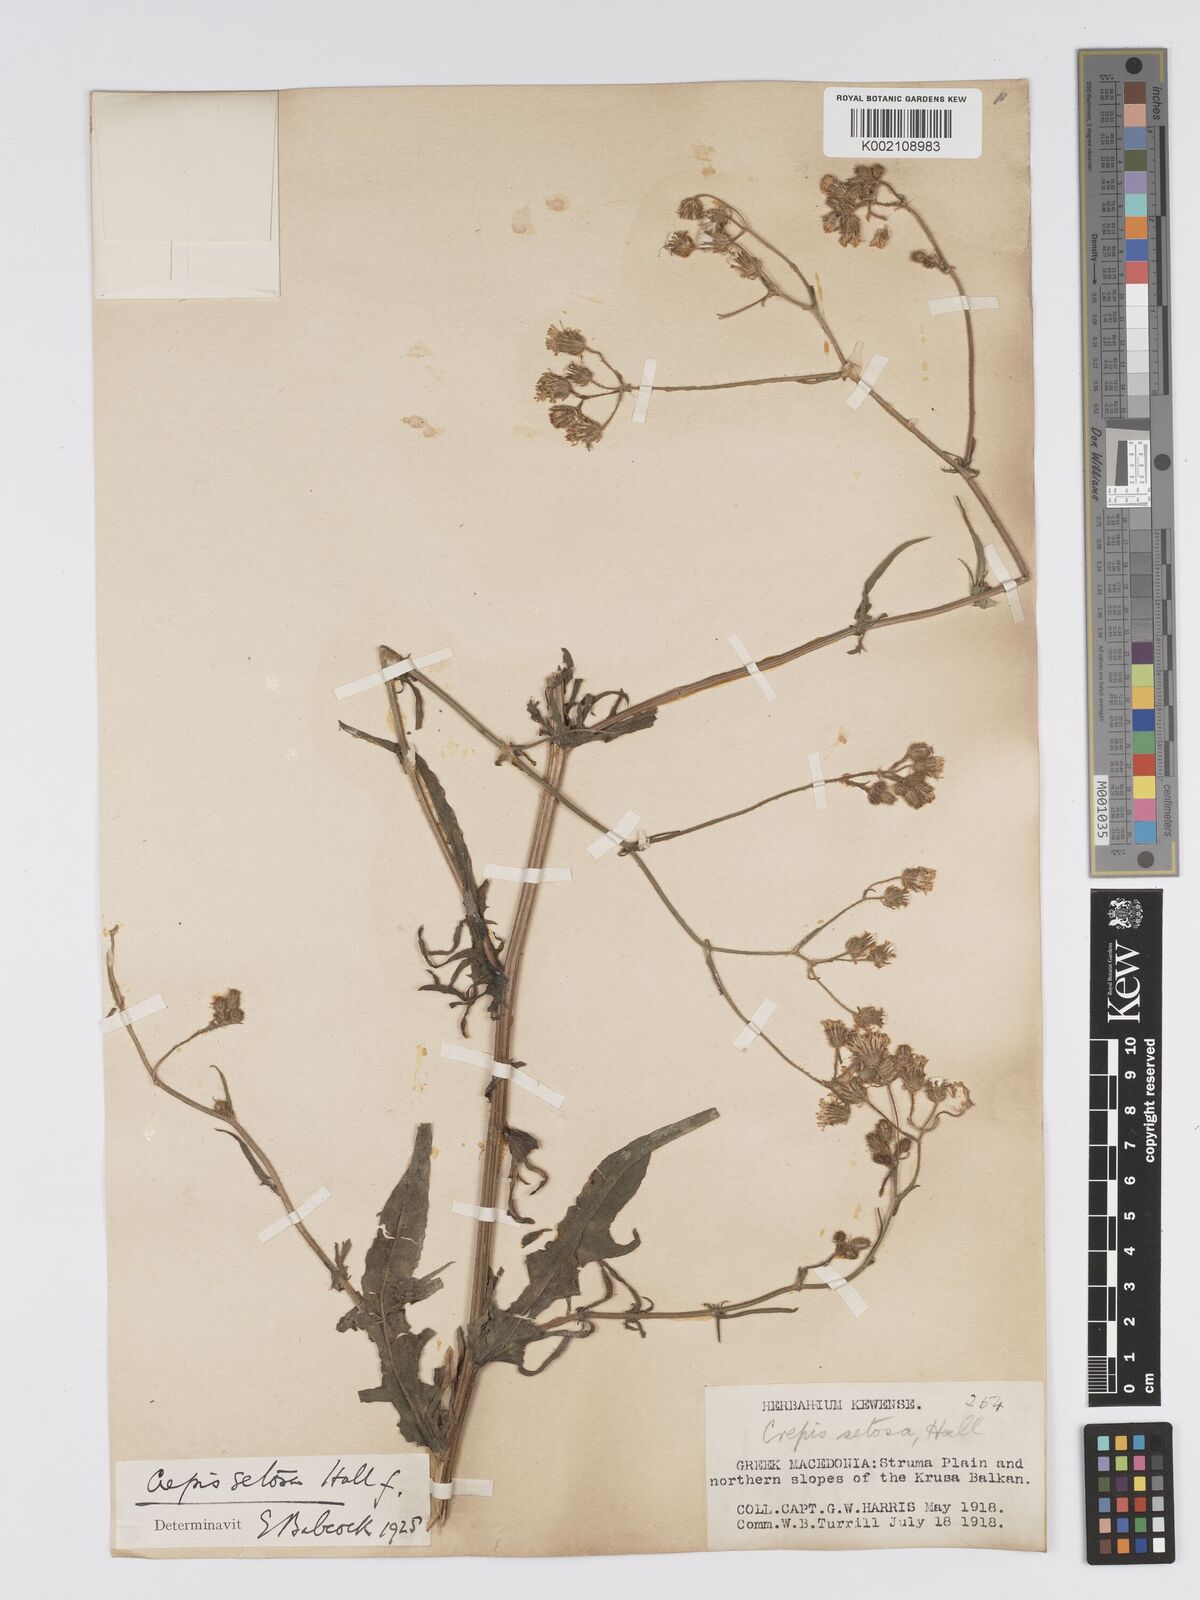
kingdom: Plantae
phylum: Tracheophyta
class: Magnoliopsida
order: Asterales
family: Asteraceae
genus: Crepis
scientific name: Crepis setosa
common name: Bristly hawk's-beard
